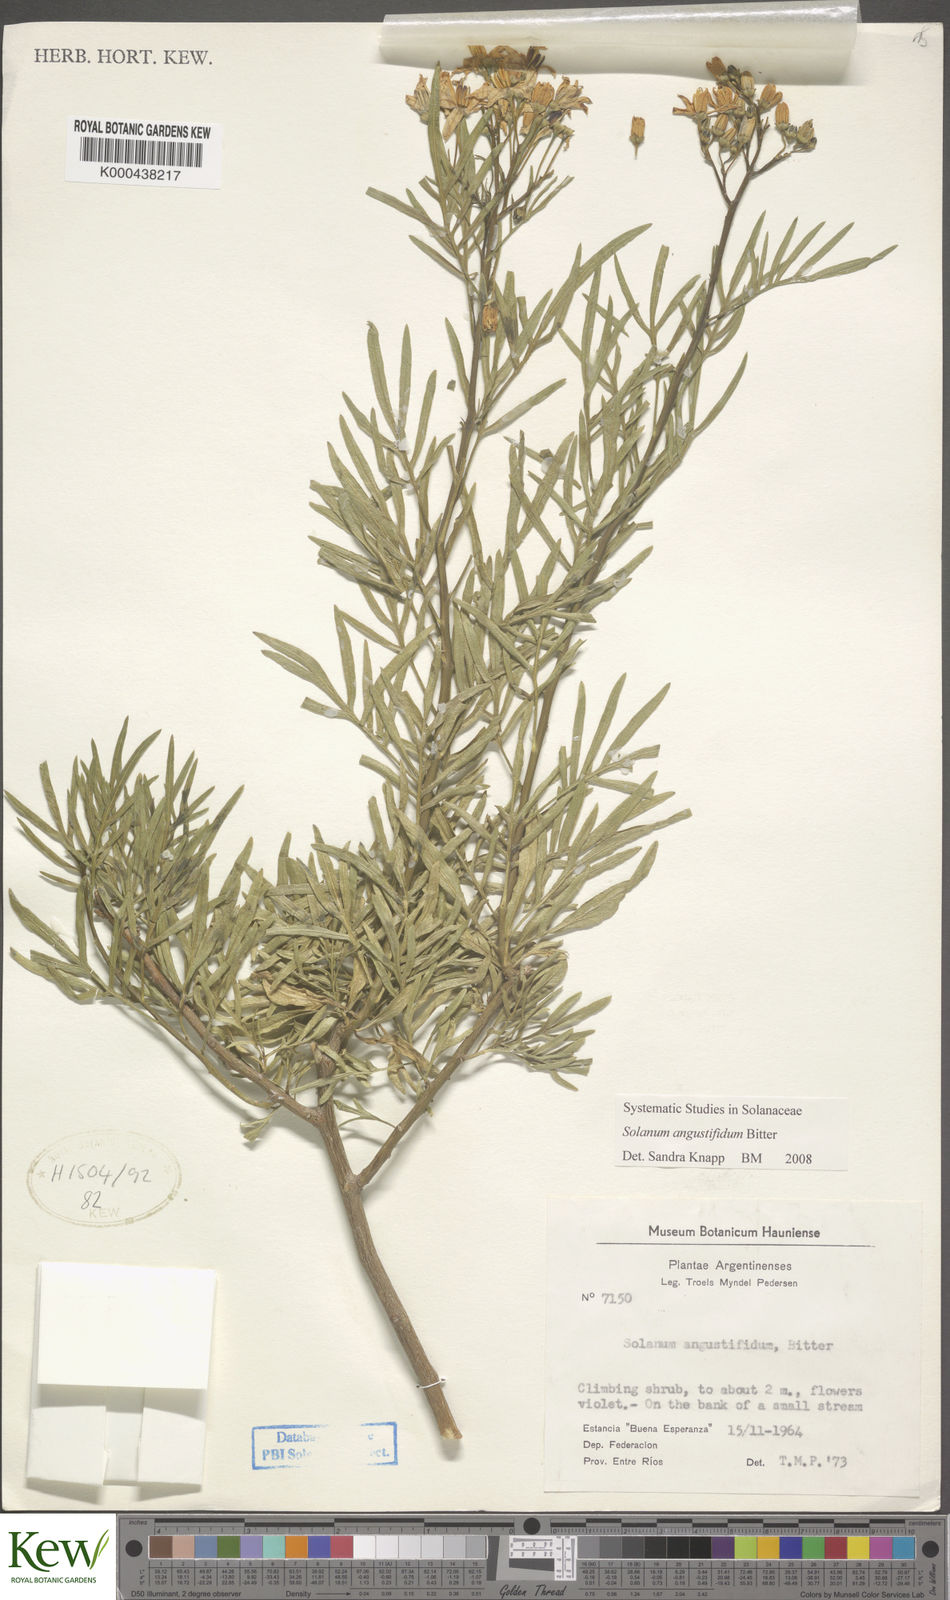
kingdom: Plantae
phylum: Tracheophyta
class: Magnoliopsida
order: Solanales
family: Solanaceae
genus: Solanum
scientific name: Solanum angustifidum
